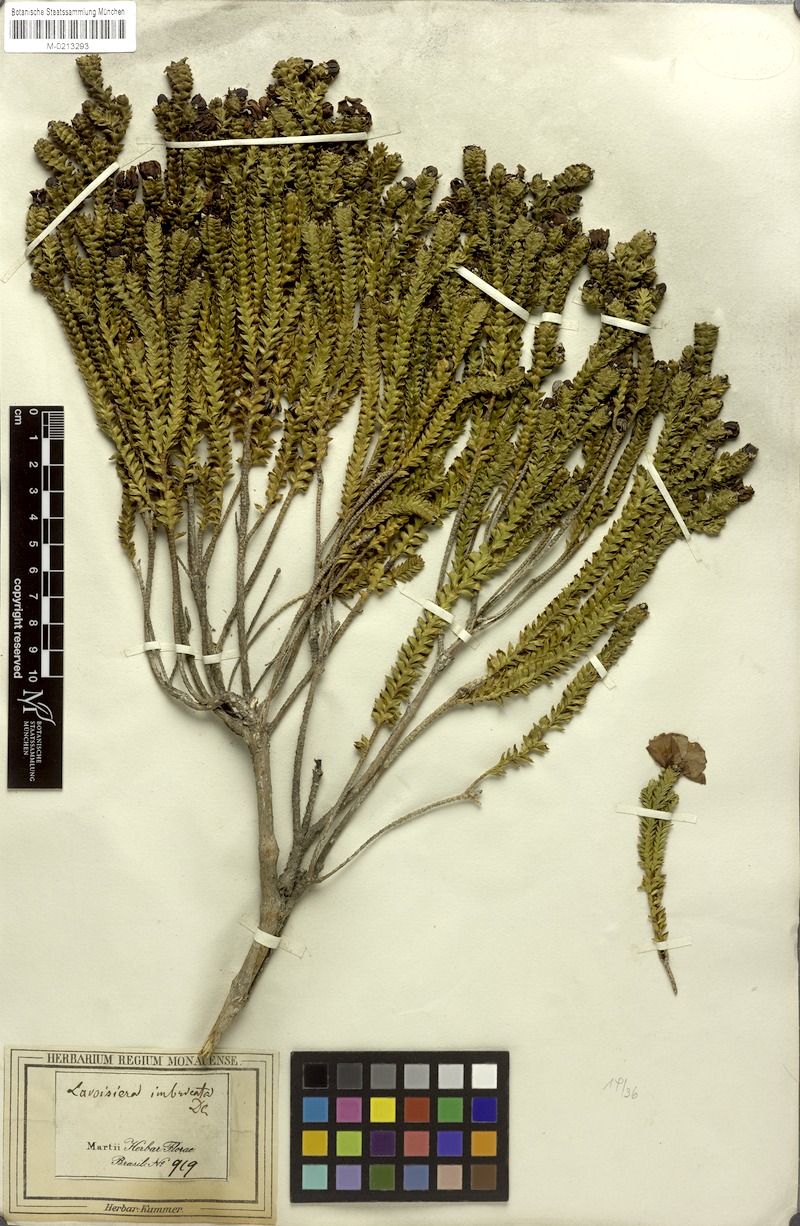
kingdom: Plantae
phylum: Tracheophyta
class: Magnoliopsida
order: Myrtales
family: Melastomataceae
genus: Microlicia
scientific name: Microlicia cataphracta
